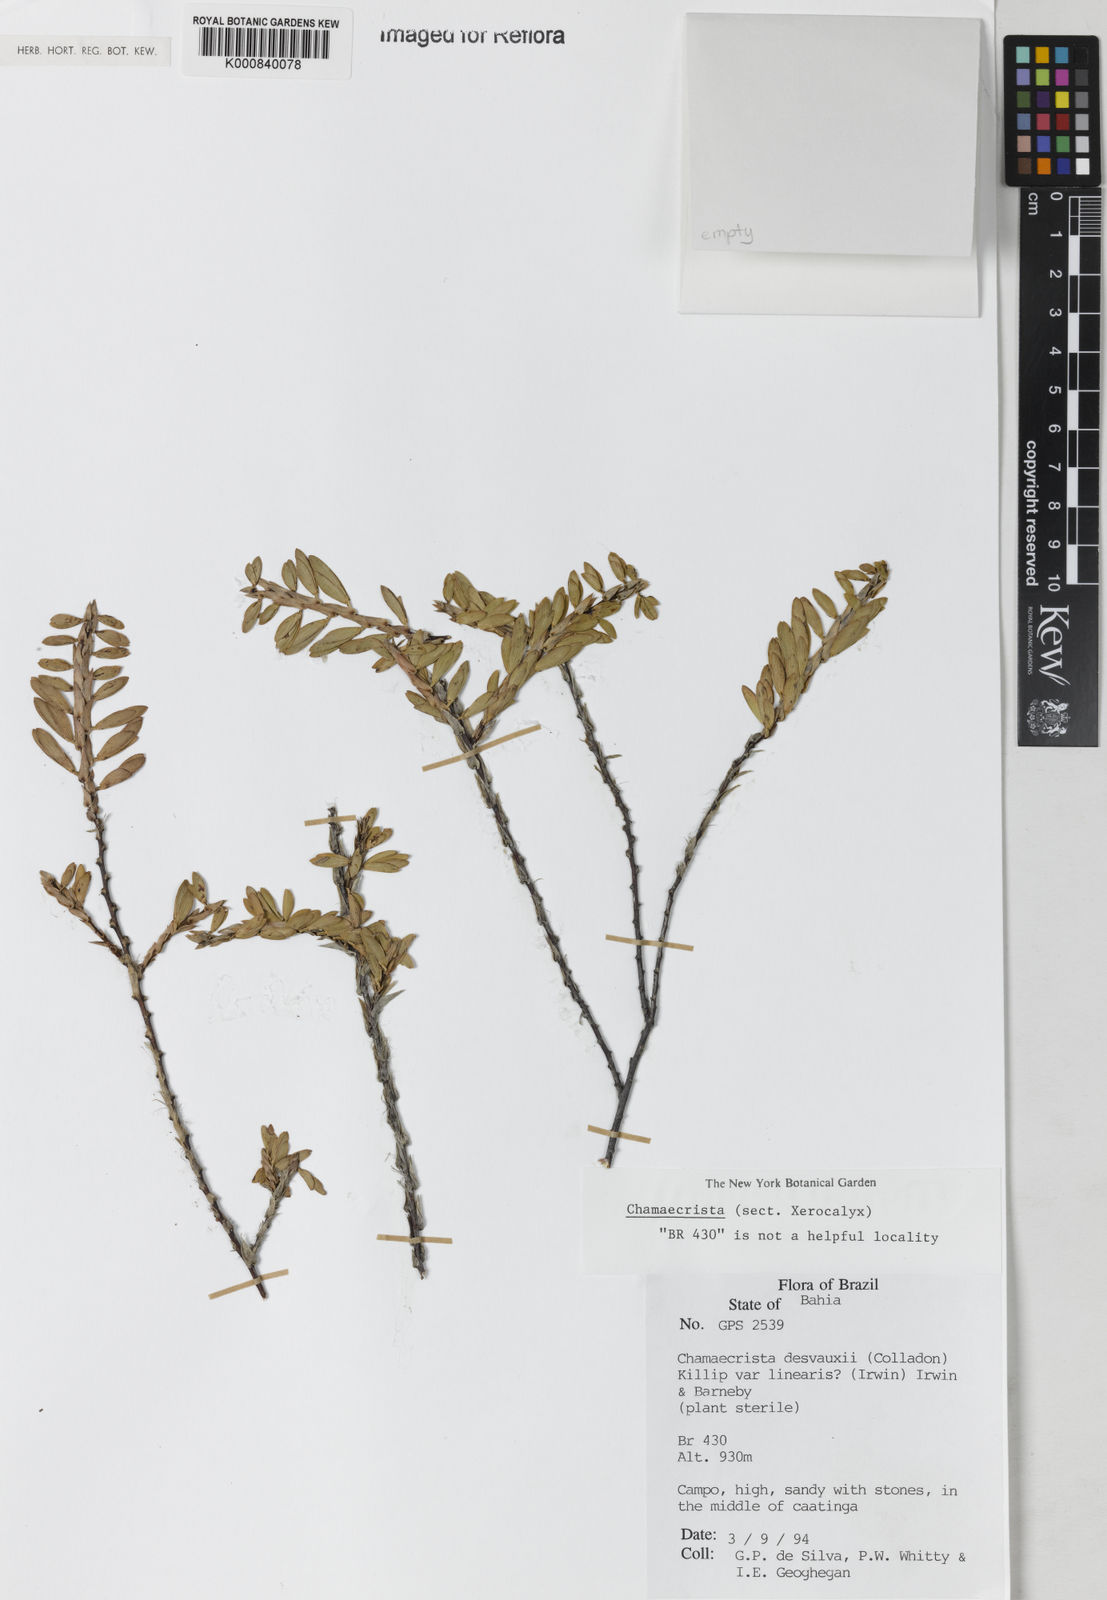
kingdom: Plantae
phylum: Tracheophyta
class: Magnoliopsida
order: Fabales
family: Fabaceae
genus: Chamaecrista
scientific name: Chamaecrista langsdorffii
